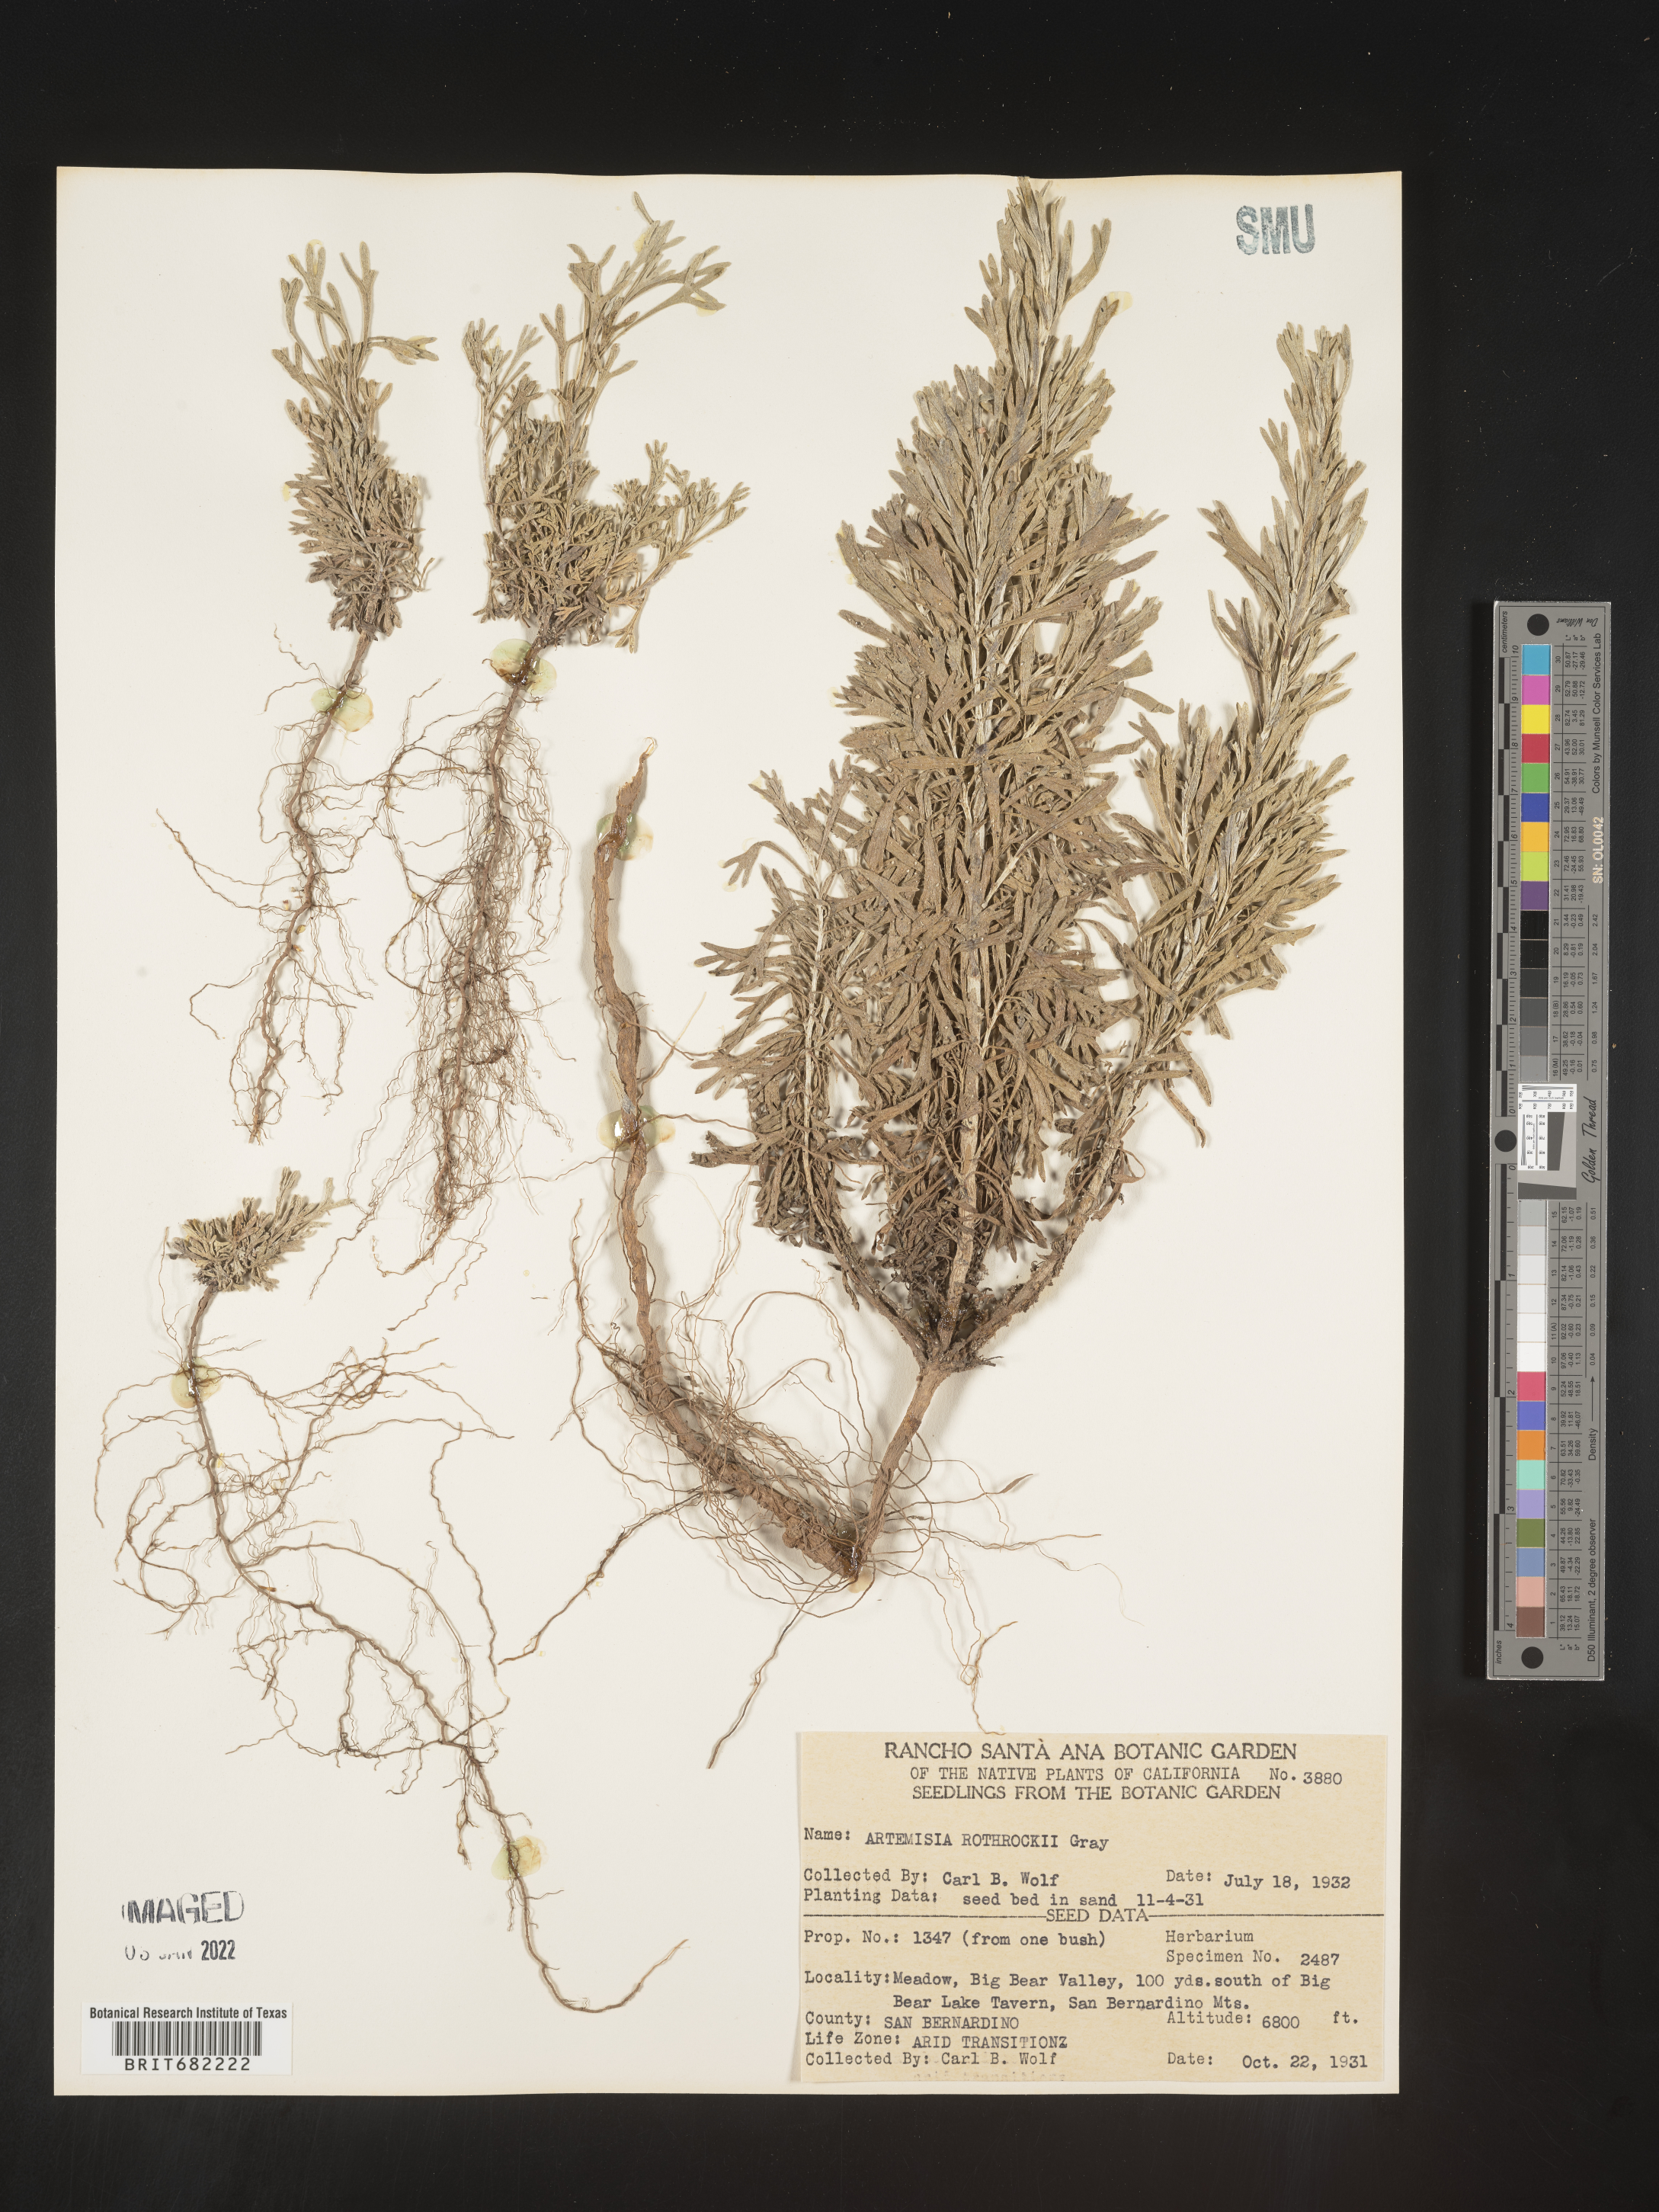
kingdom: Plantae
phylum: Tracheophyta
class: Magnoliopsida
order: Asterales
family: Asteraceae
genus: Artemisia
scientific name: Artemisia rothrockii
